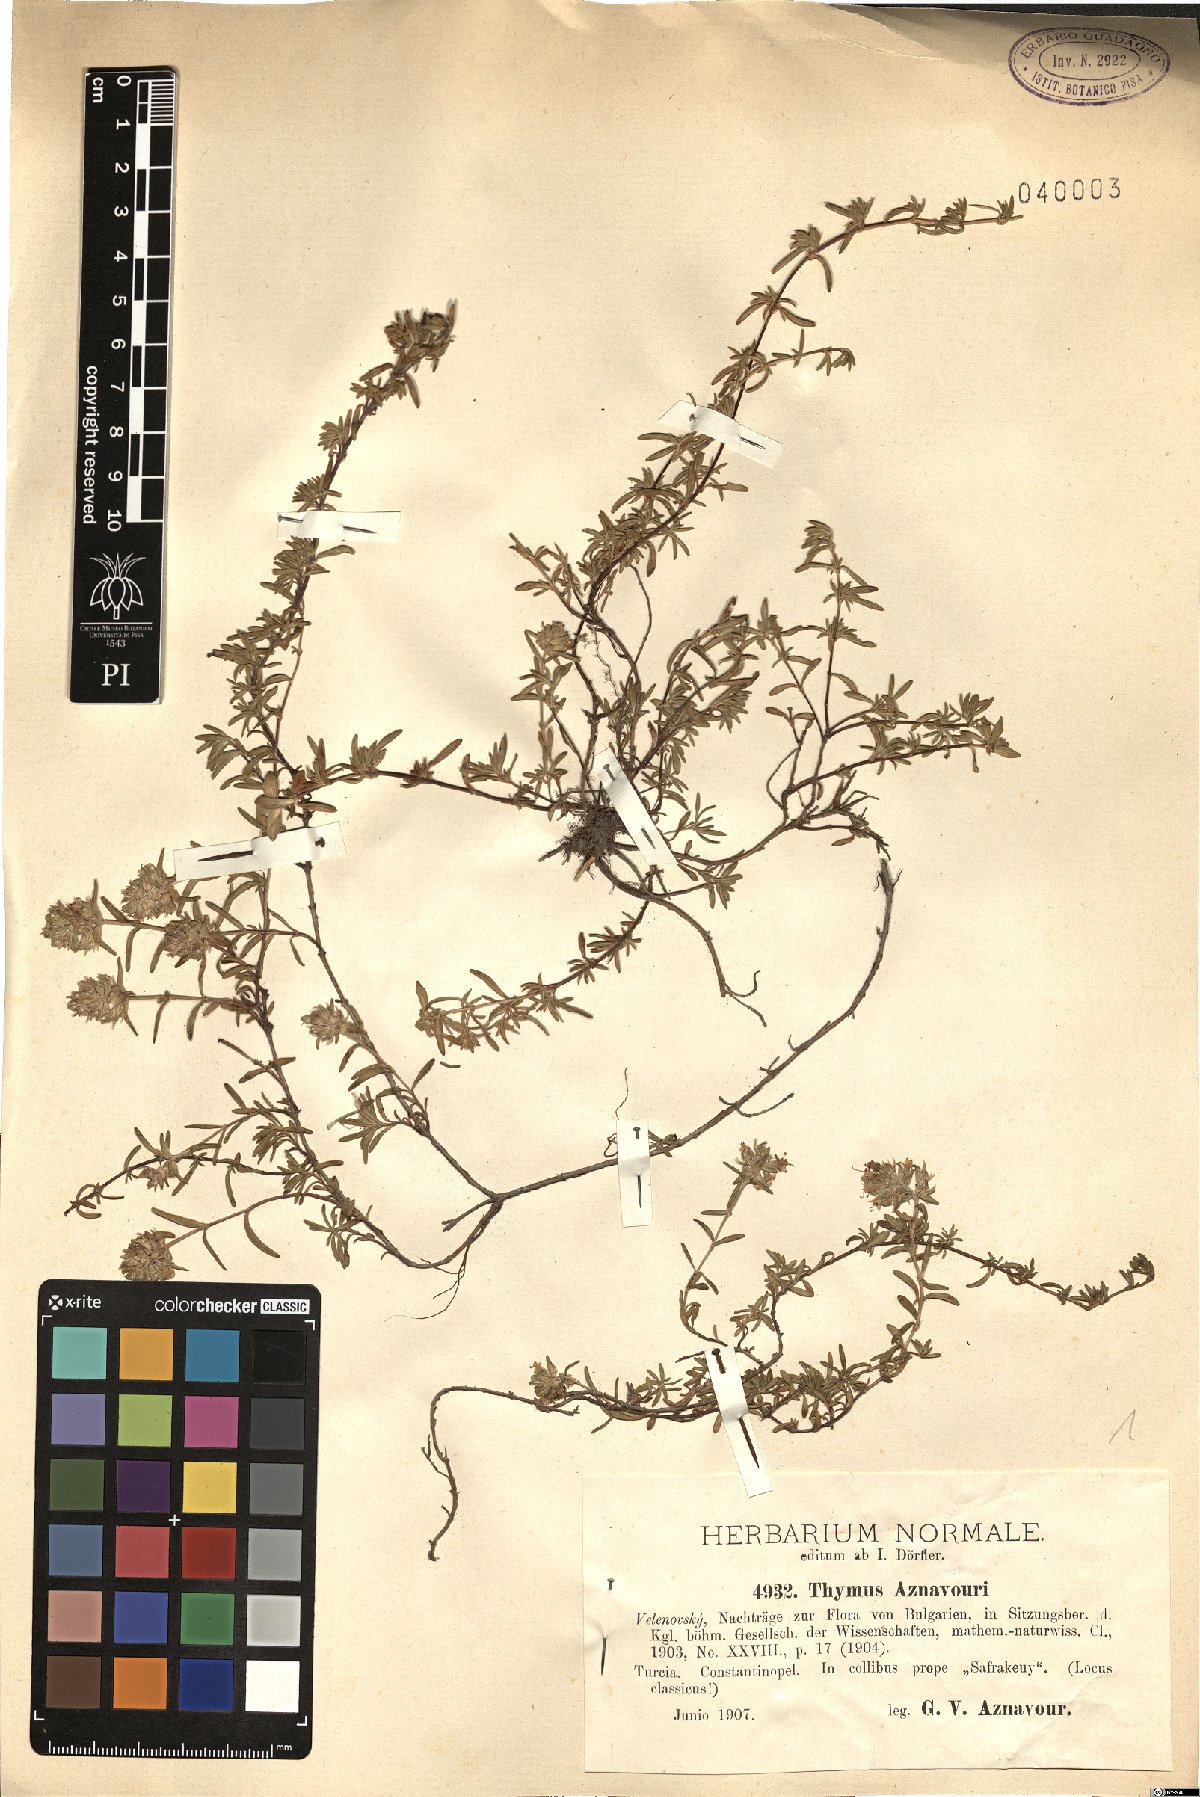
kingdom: Plantae
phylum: Tracheophyta
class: Magnoliopsida
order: Lamiales
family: Lamiaceae
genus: Thymus
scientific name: Thymus aznavourii
